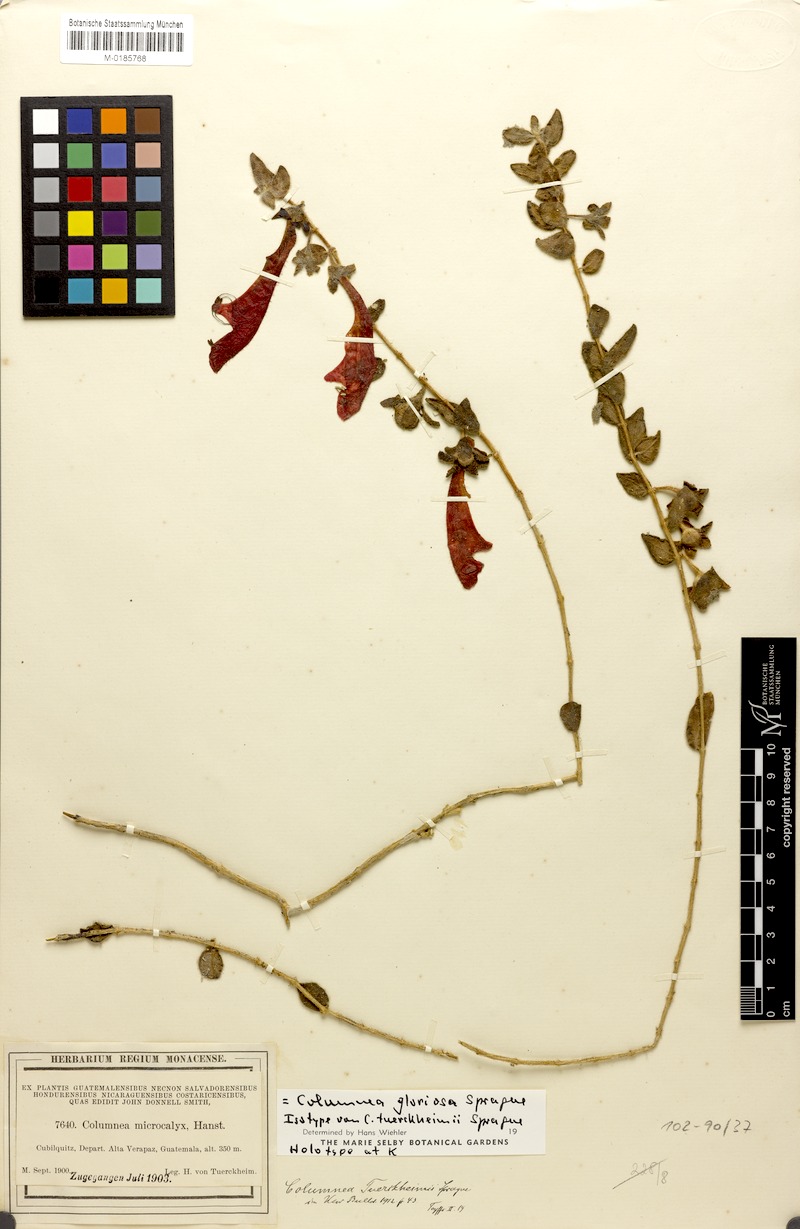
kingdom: Plantae
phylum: Tracheophyta
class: Magnoliopsida
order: Lamiales
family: Gesneriaceae
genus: Columnea
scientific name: Columnea microcalyx
